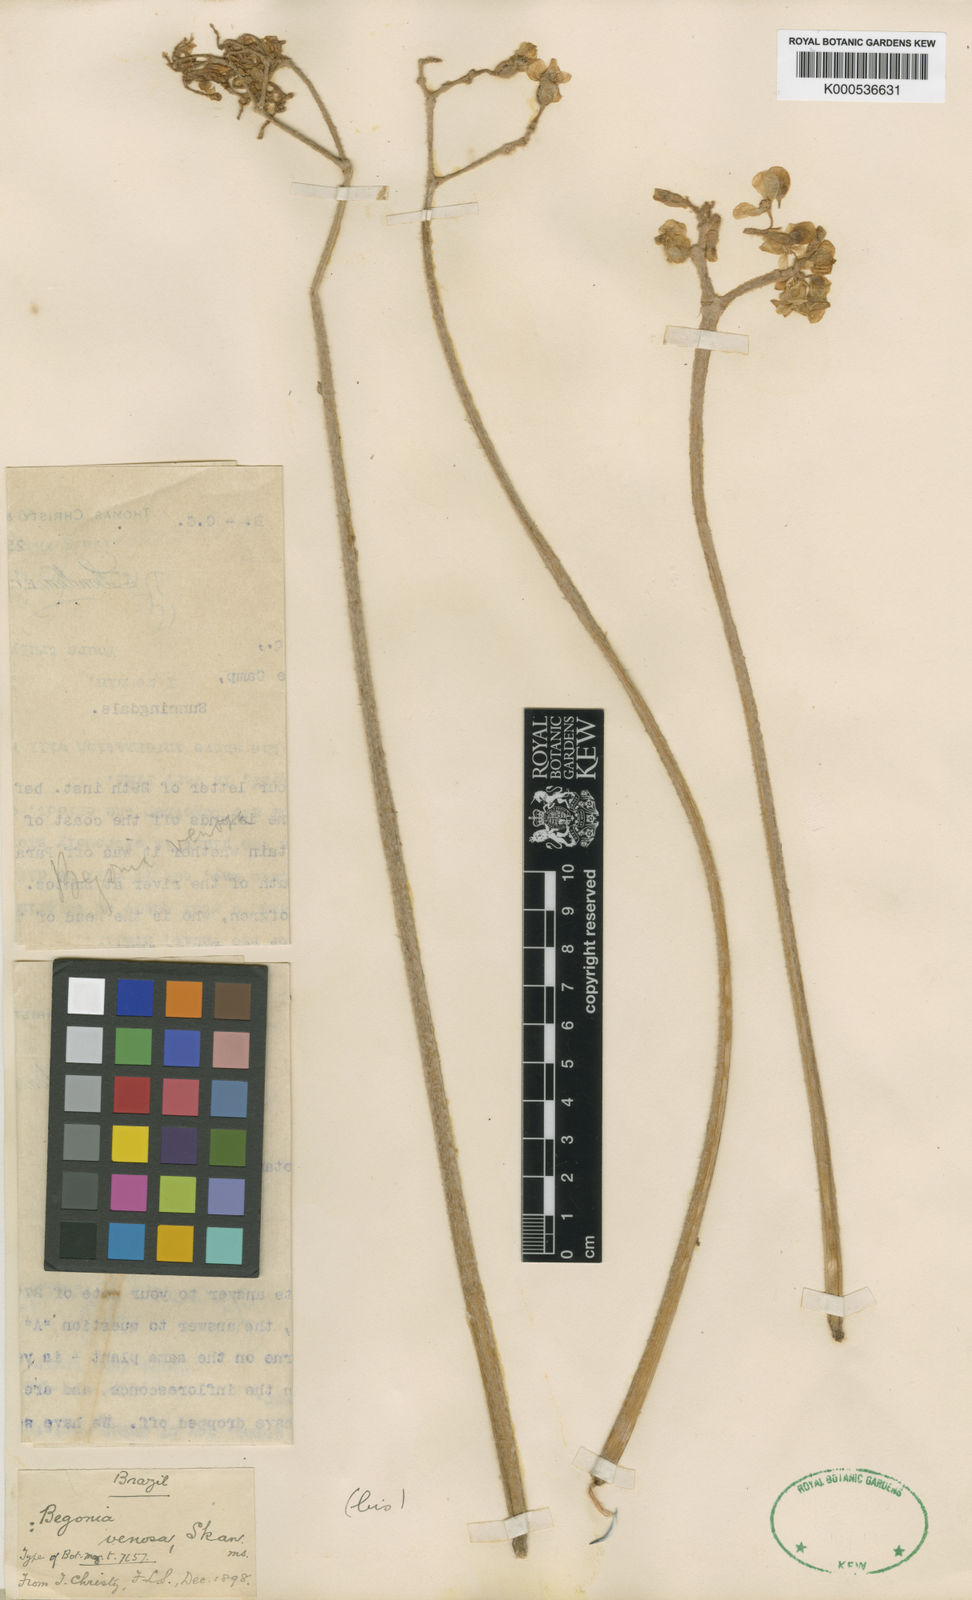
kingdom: Plantae
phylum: Tracheophyta
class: Magnoliopsida
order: Cucurbitales
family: Begoniaceae
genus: Begonia
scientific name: Begonia venosa
